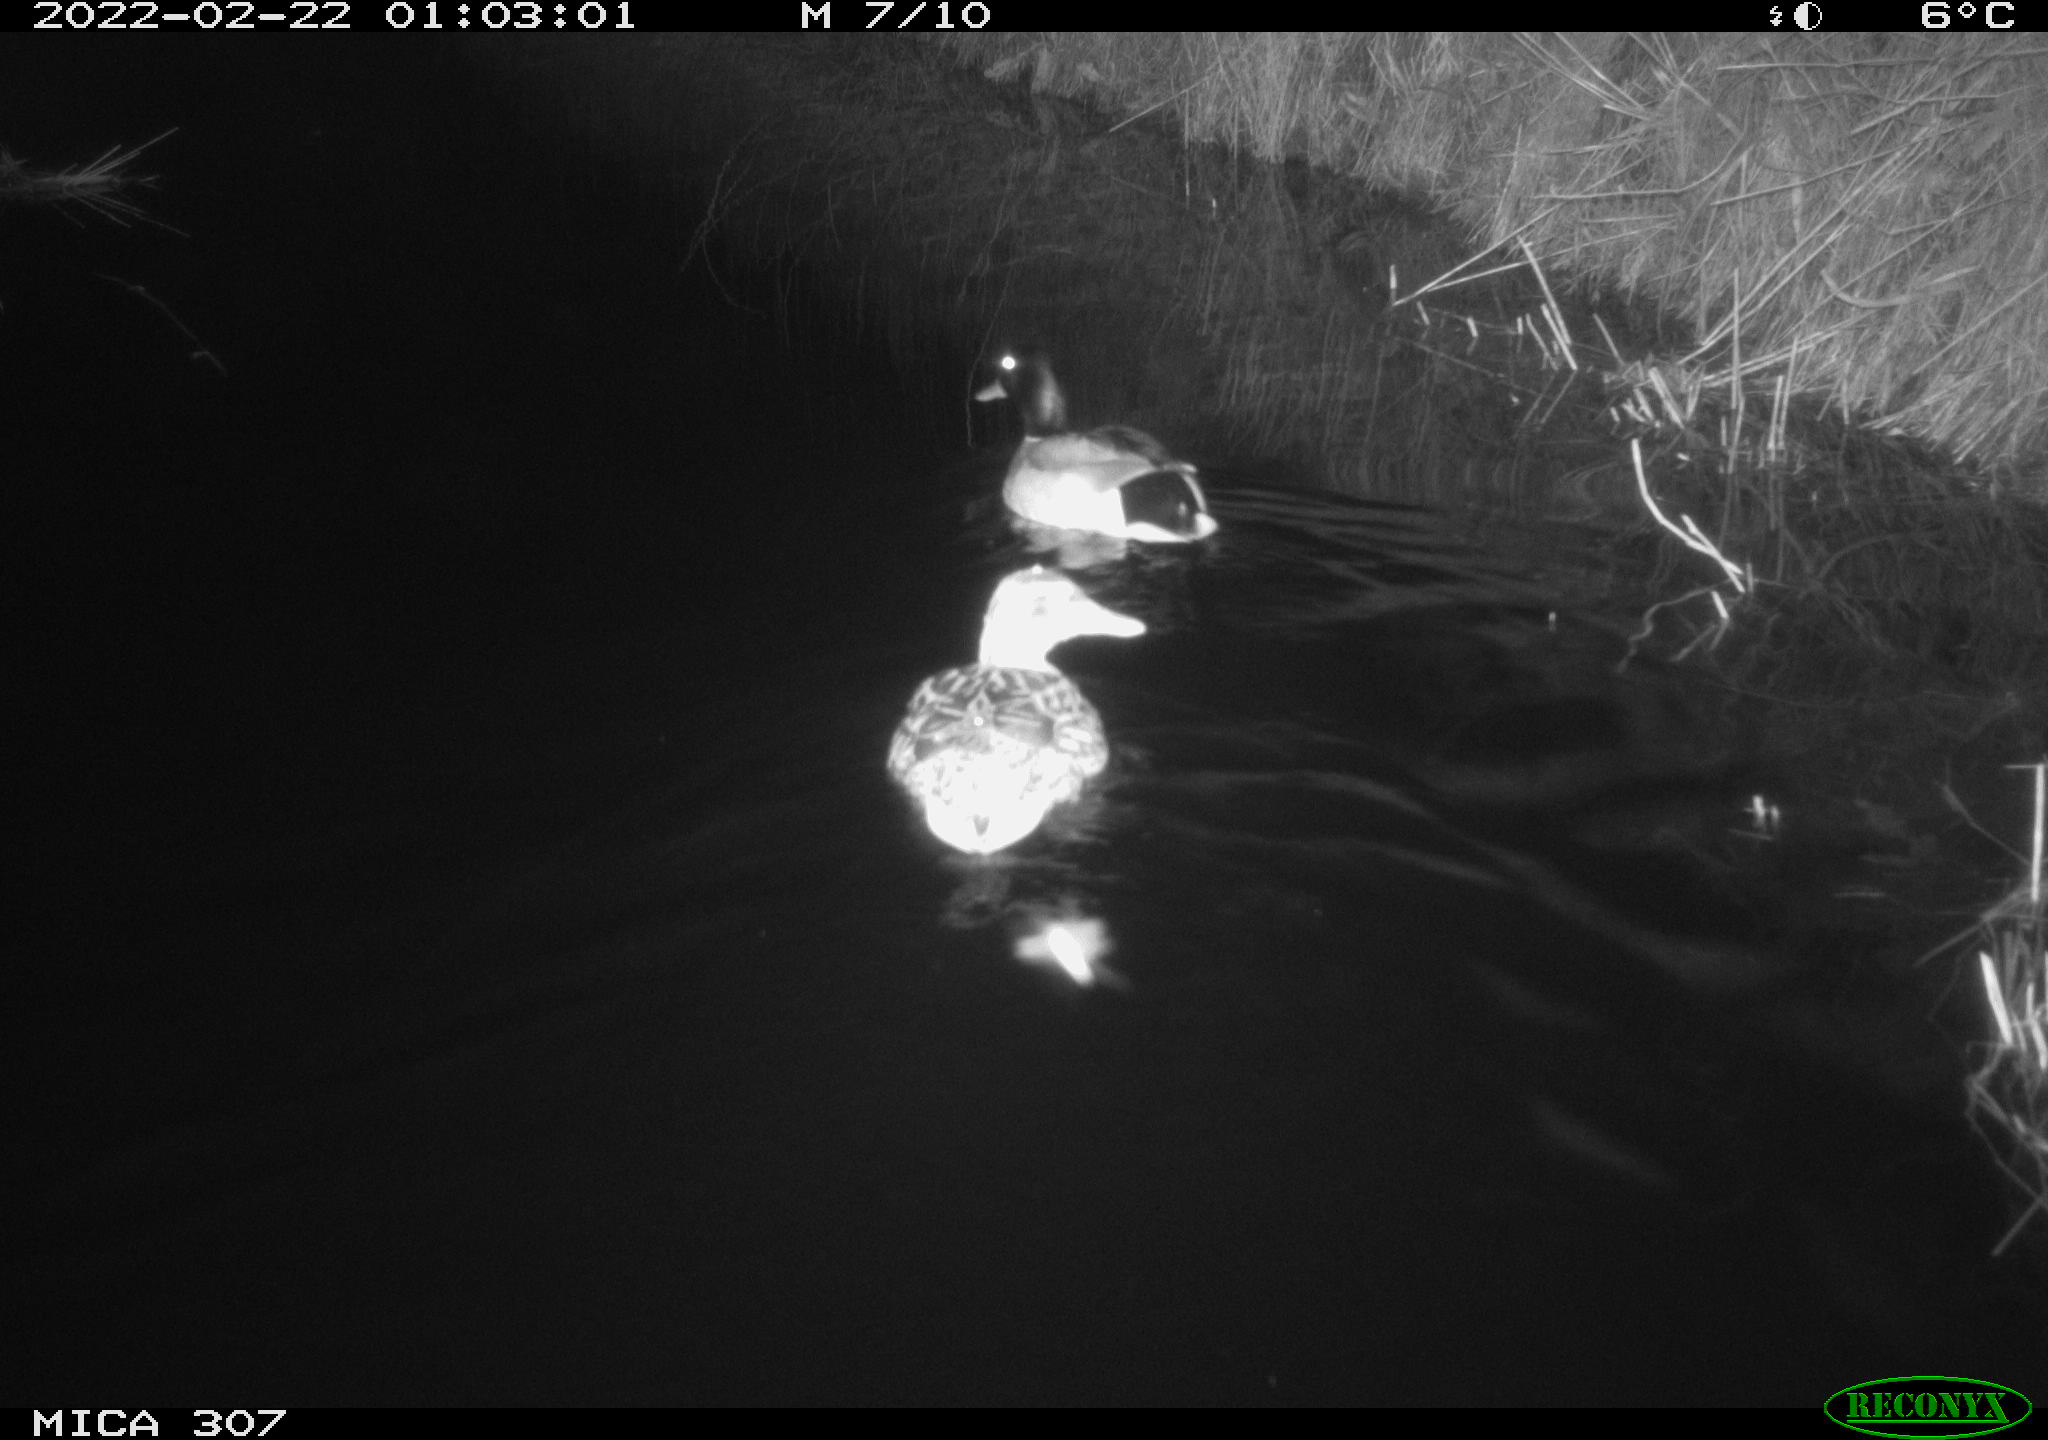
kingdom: Animalia
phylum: Chordata
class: Aves
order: Anseriformes
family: Anatidae
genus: Anas
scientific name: Anas platyrhynchos
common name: Mallard
